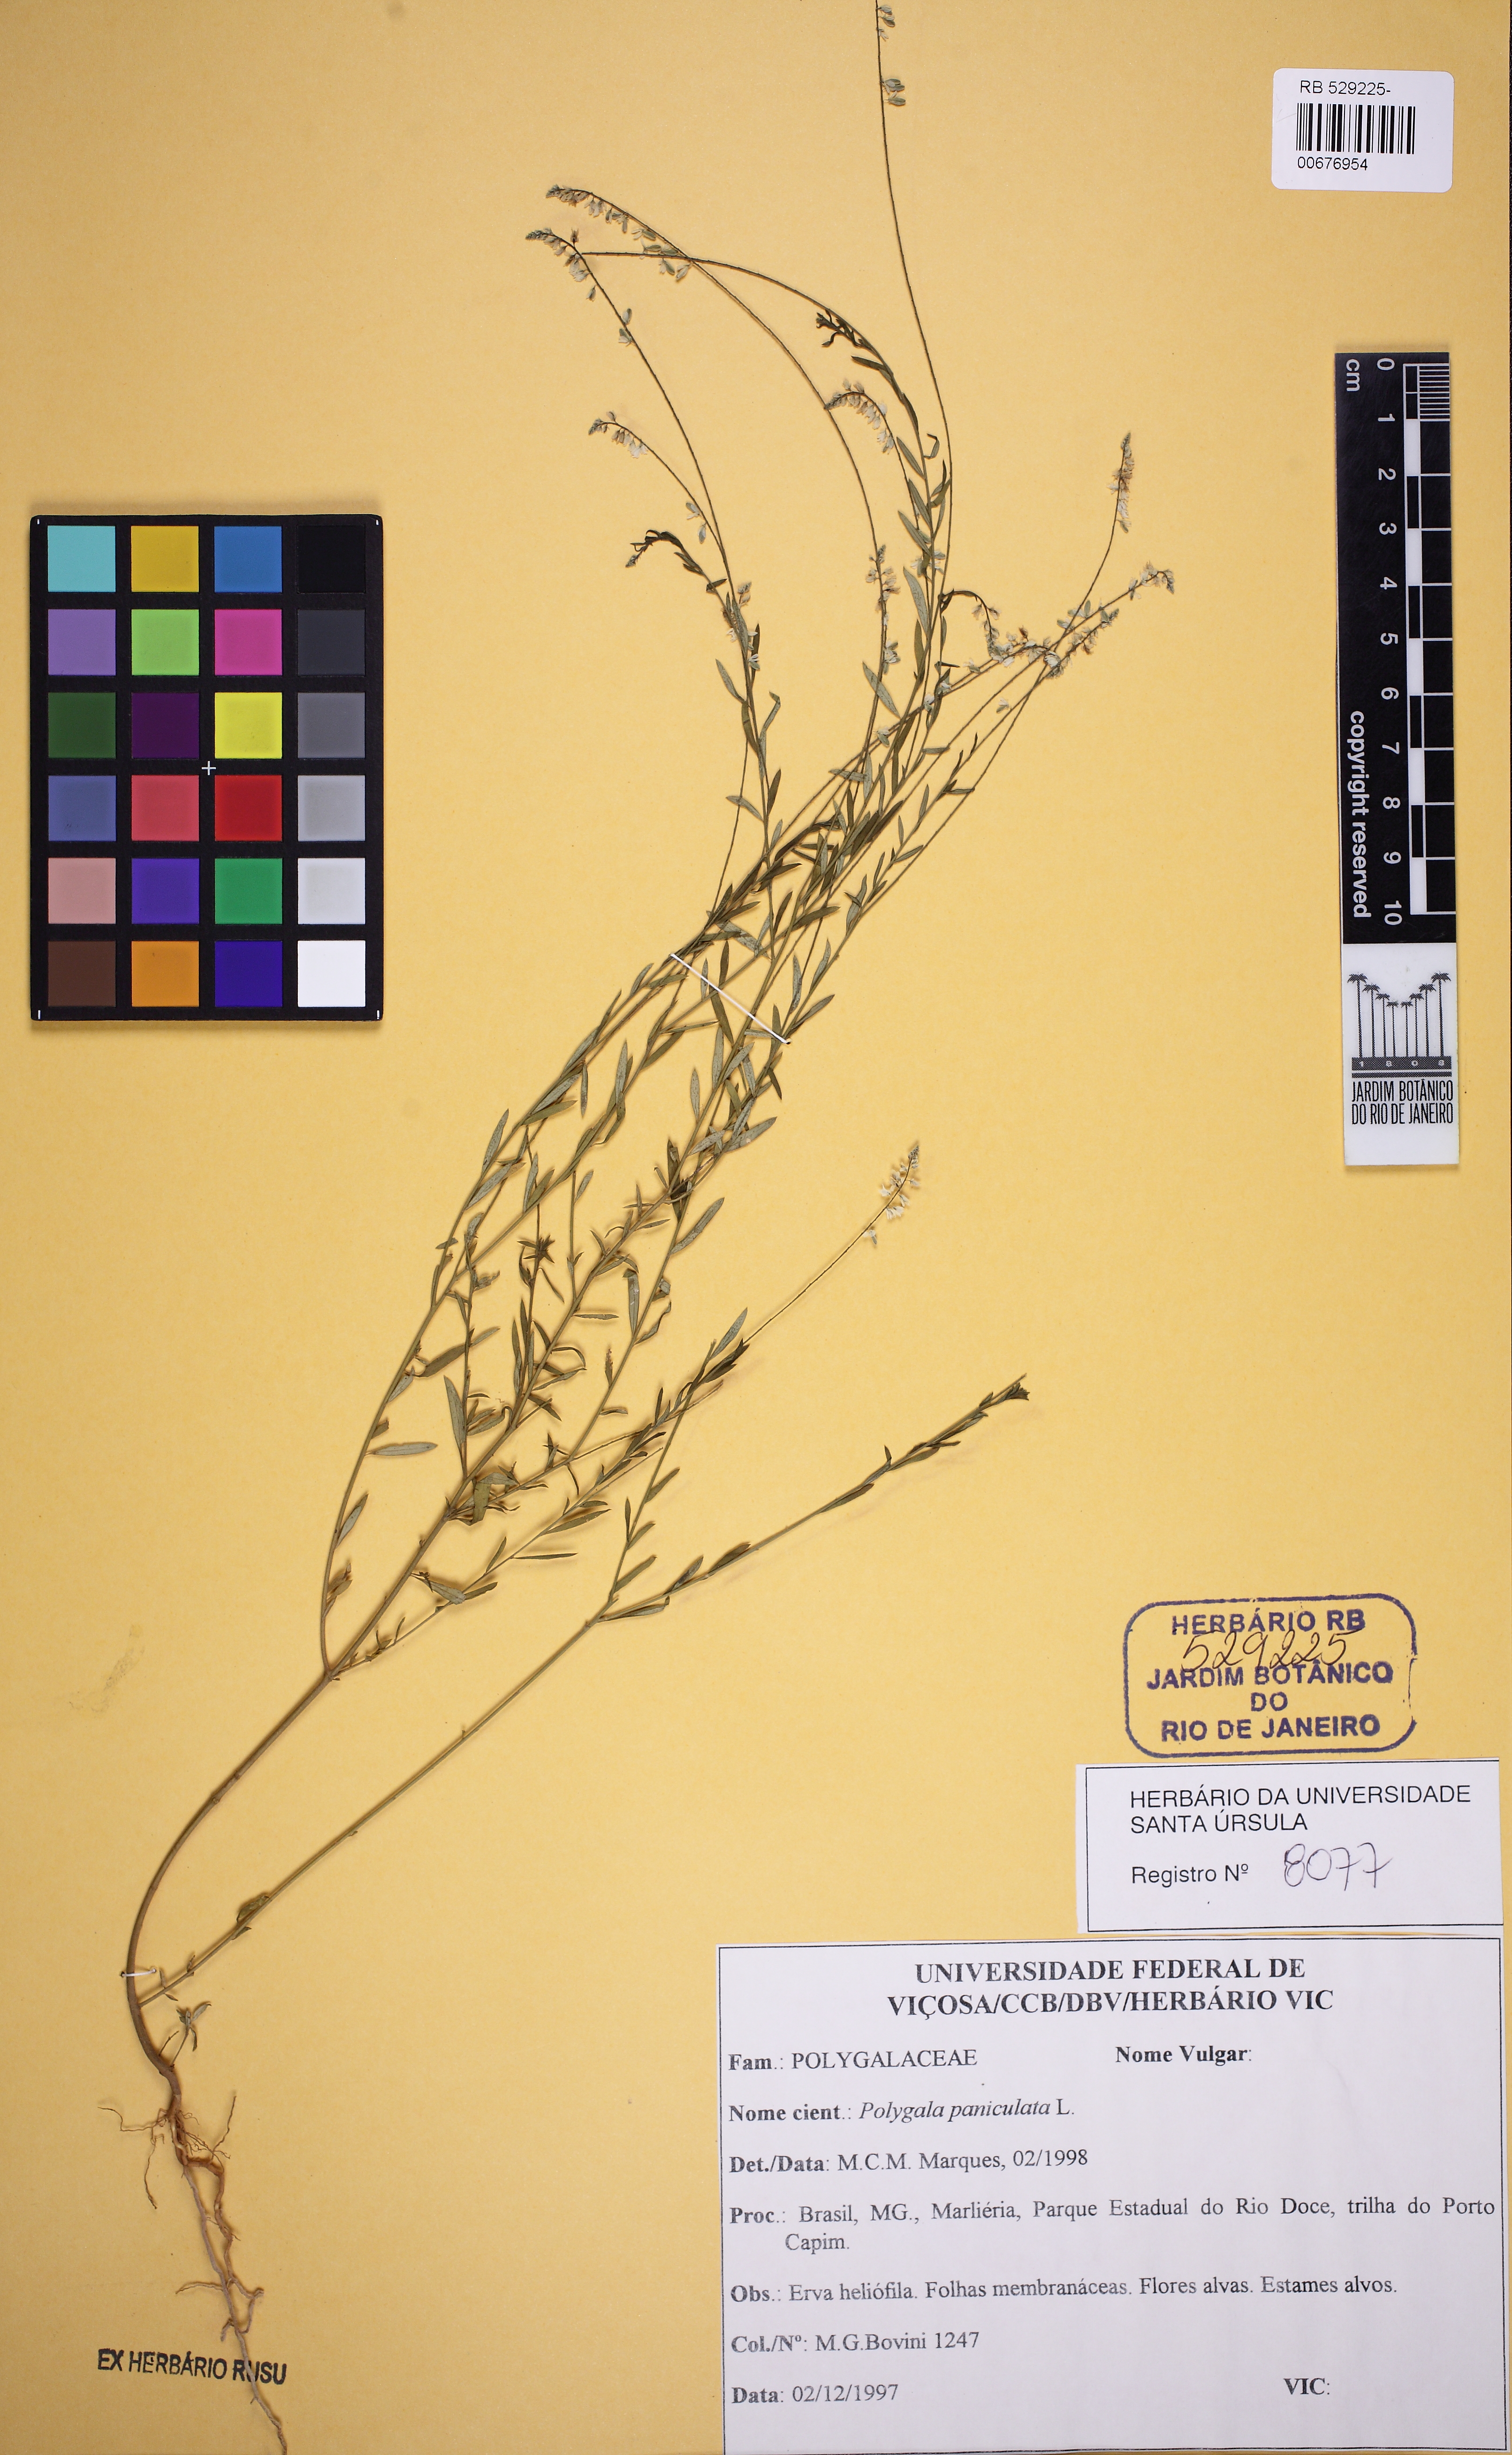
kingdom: Plantae
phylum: Tracheophyta
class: Magnoliopsida
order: Fabales
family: Polygalaceae
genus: Polygala
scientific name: Polygala paniculata
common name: Orosne
